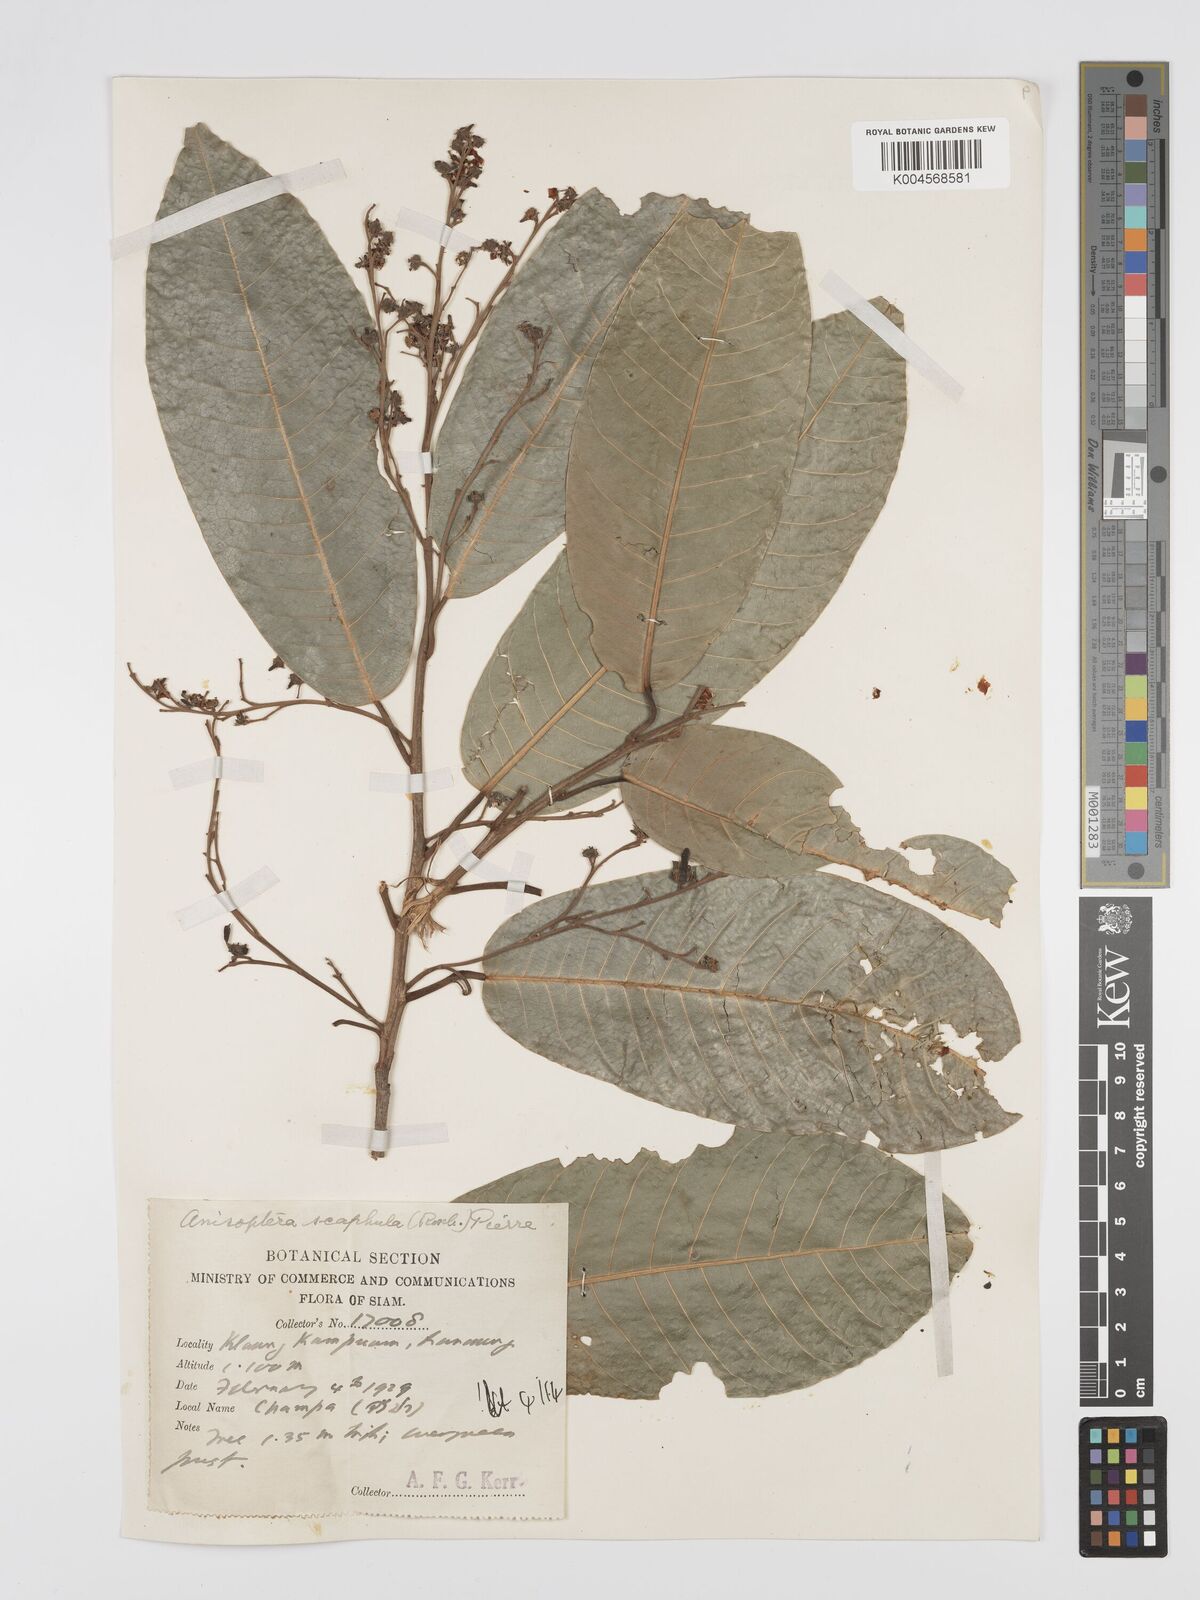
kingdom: Plantae
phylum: Tracheophyta
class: Magnoliopsida
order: Malvales
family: Dipterocarpaceae
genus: Anisoptera
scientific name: Anisoptera scaphula
